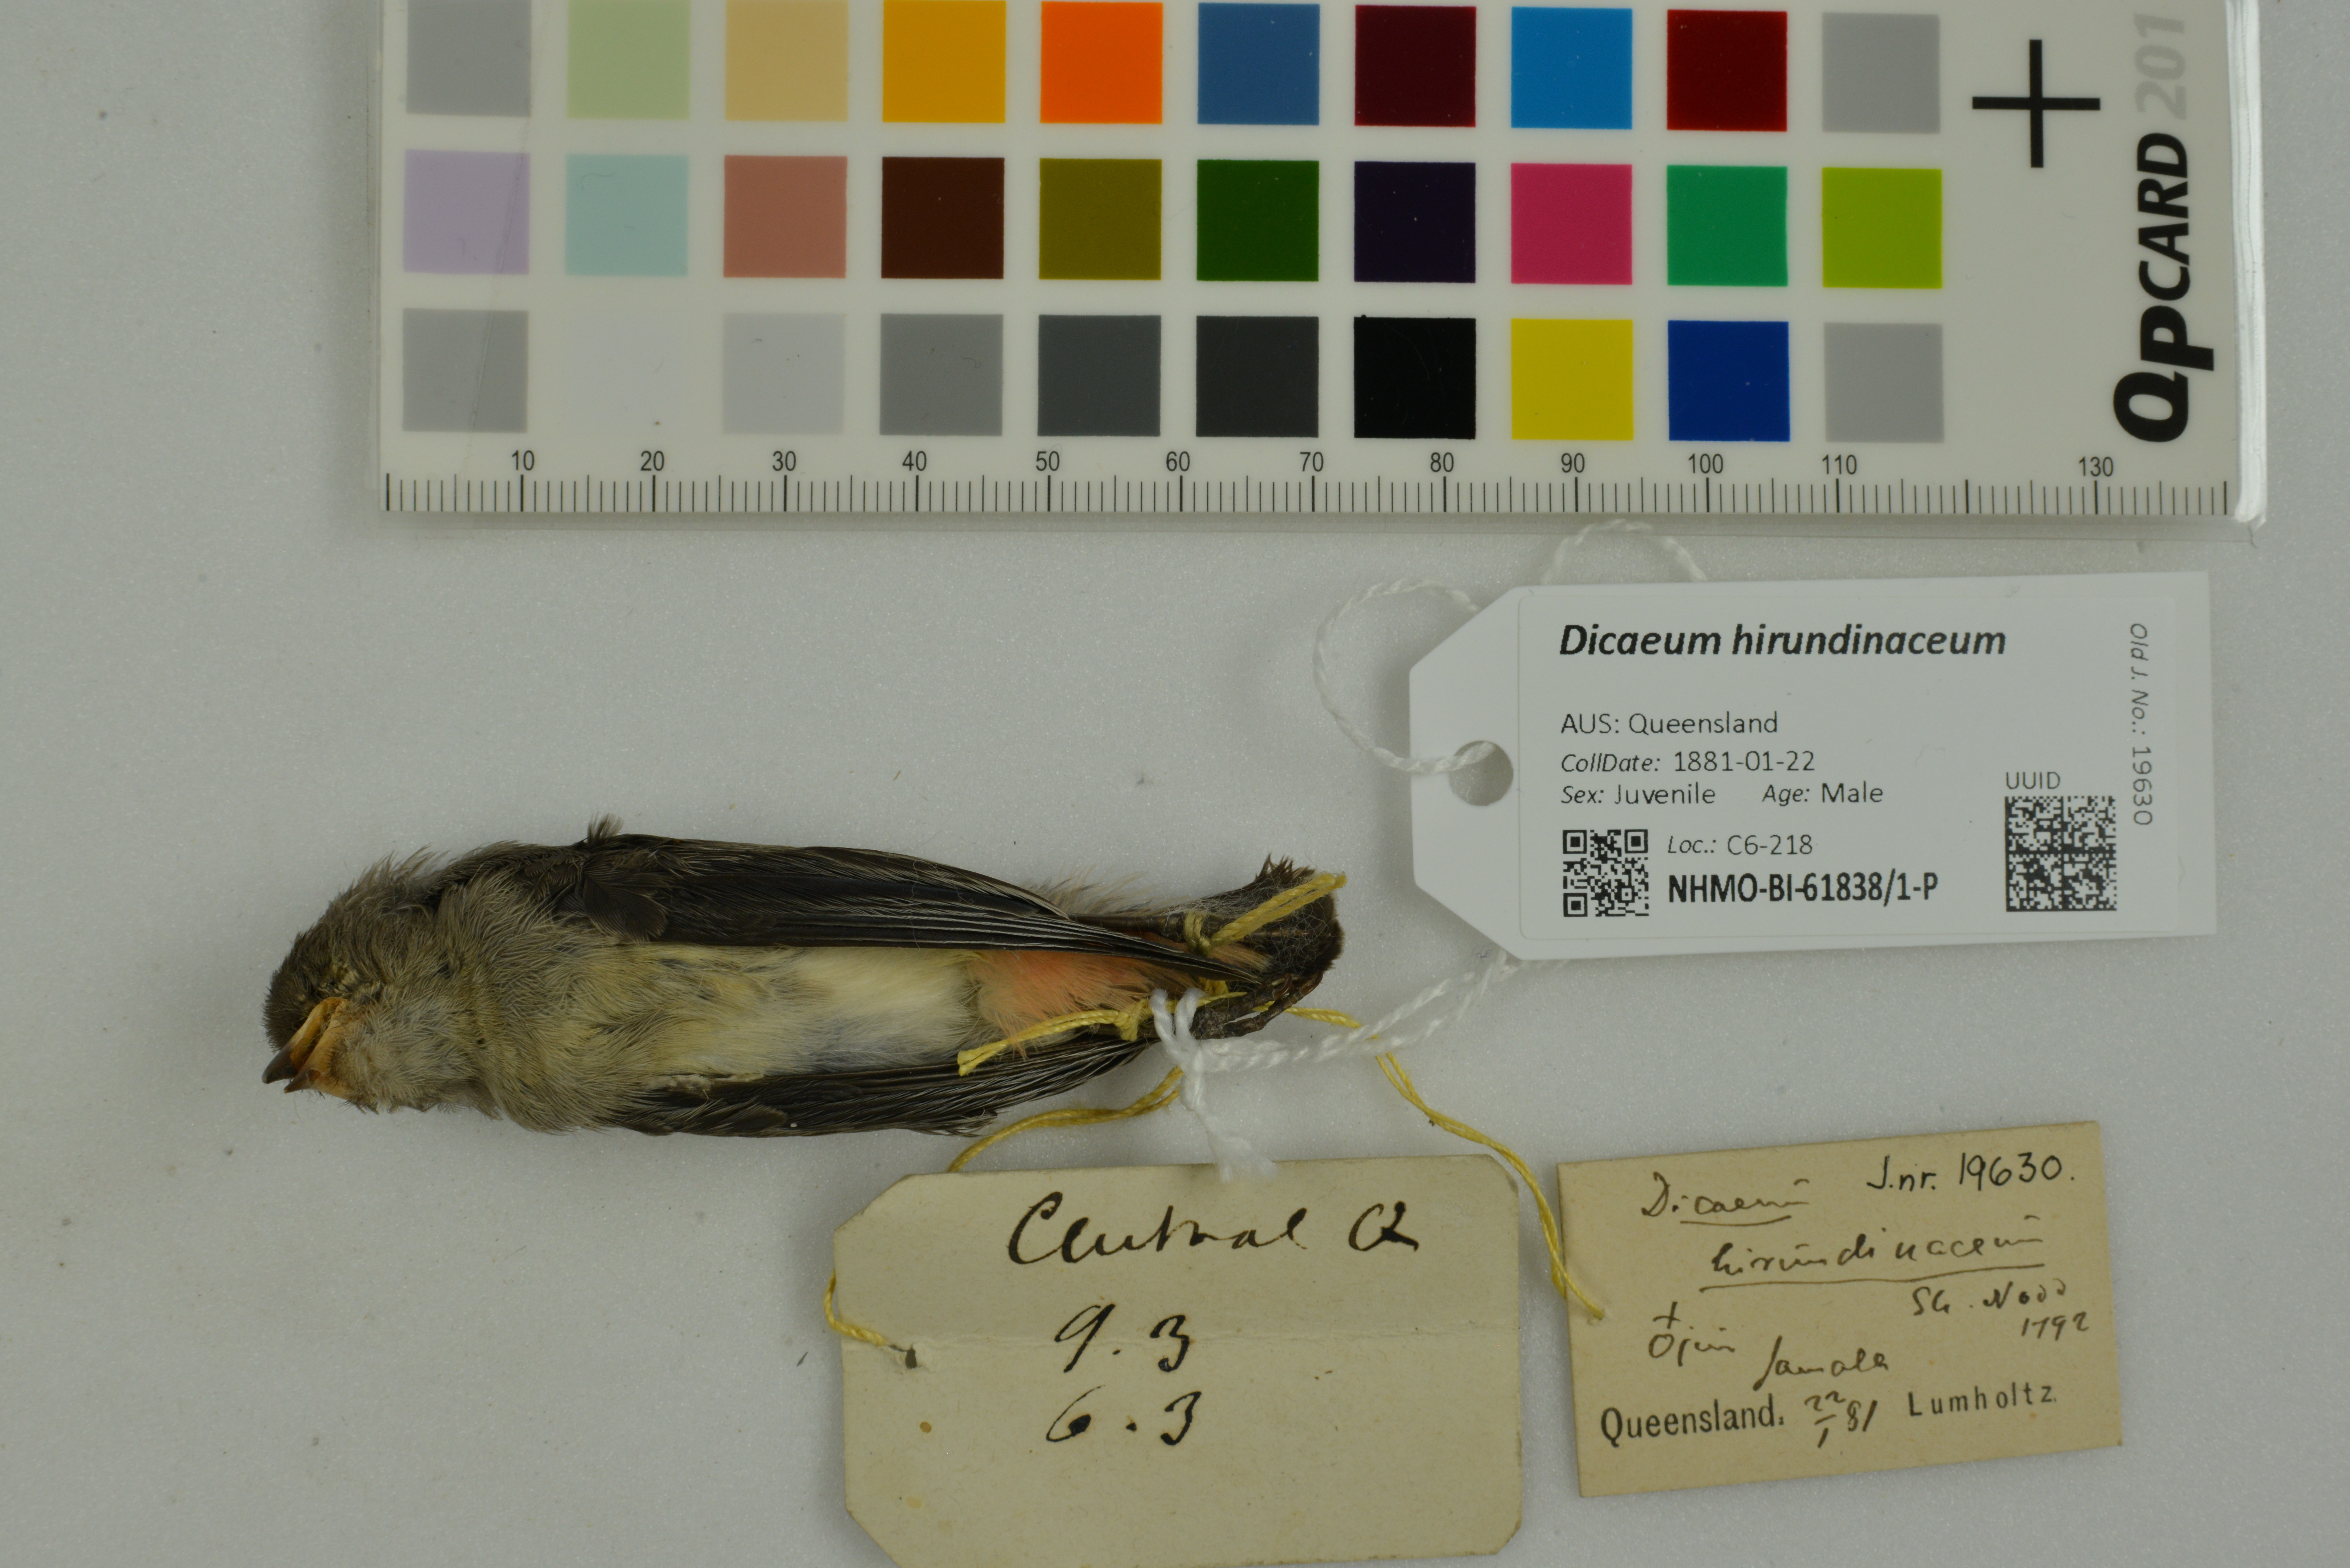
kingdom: Animalia
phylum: Chordata
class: Aves
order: Passeriformes
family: Dicaeidae
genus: Dicaeum
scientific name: Dicaeum hirundinaceum
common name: Mistletoebird
